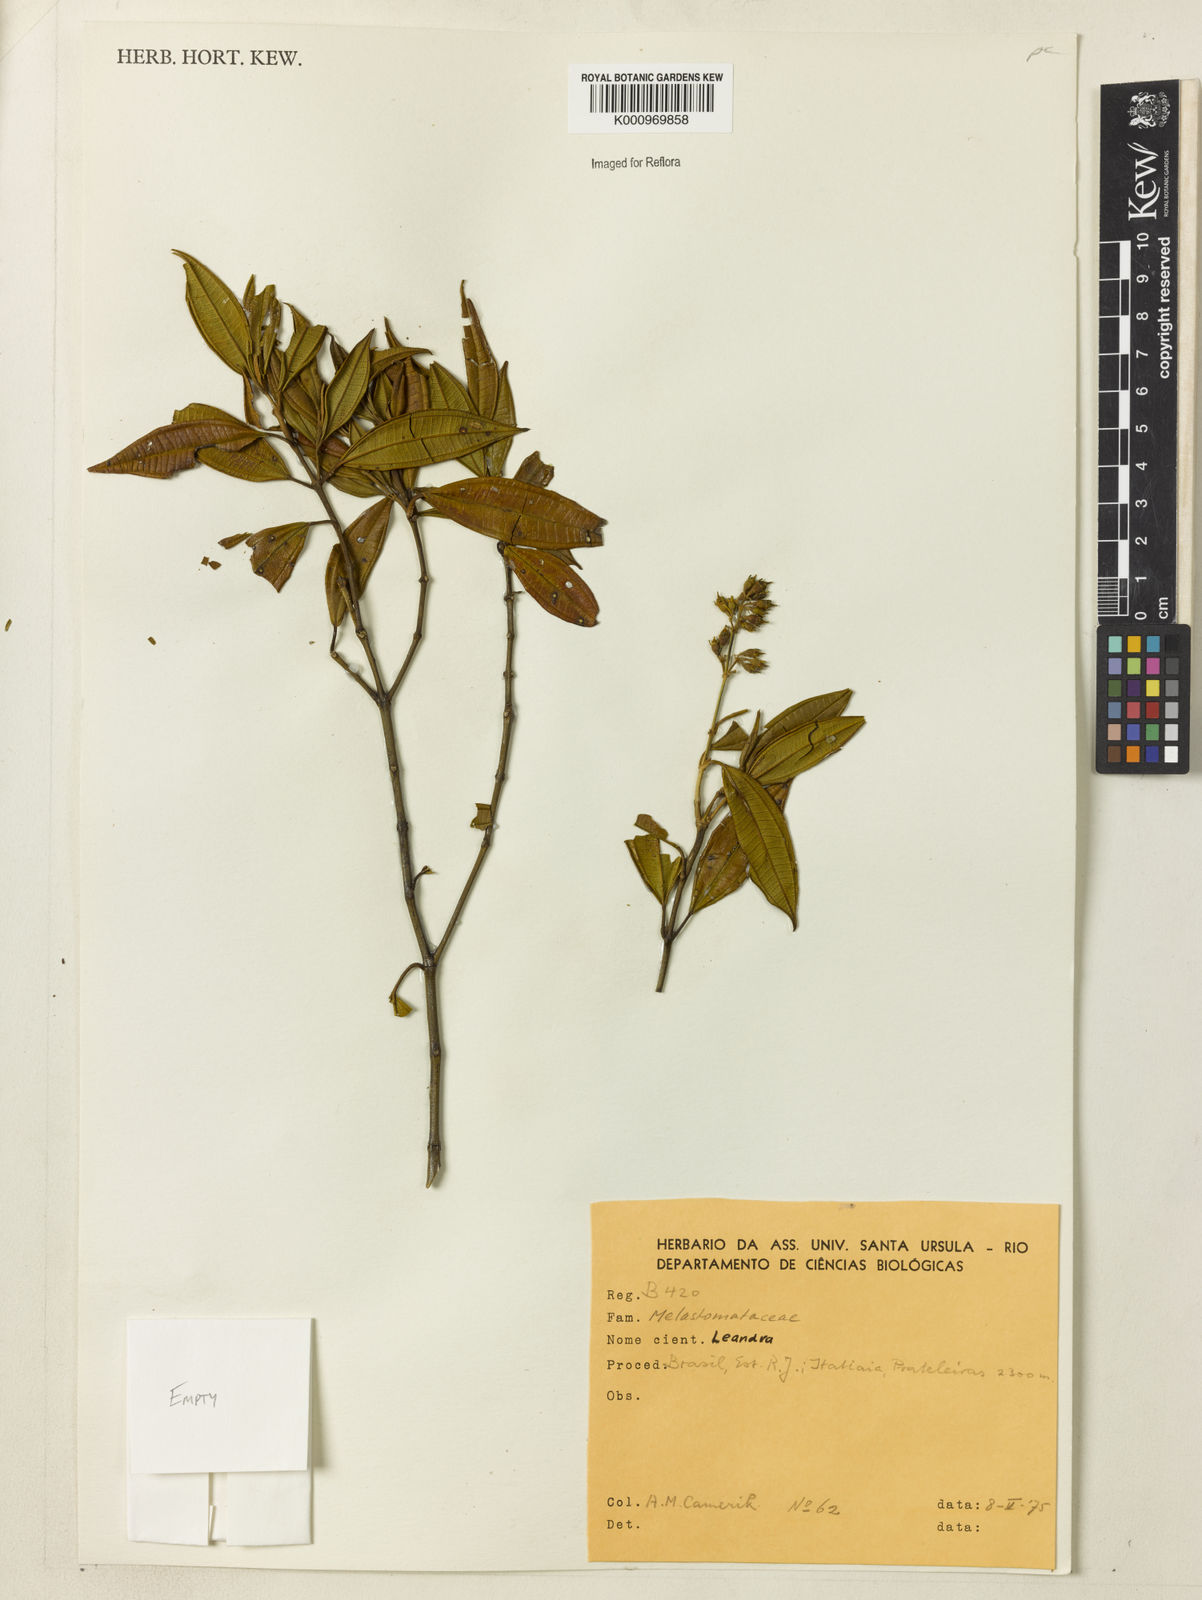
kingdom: Plantae
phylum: Tracheophyta
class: Magnoliopsida
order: Myrtales
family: Melastomataceae
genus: Miconia
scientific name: Miconia
